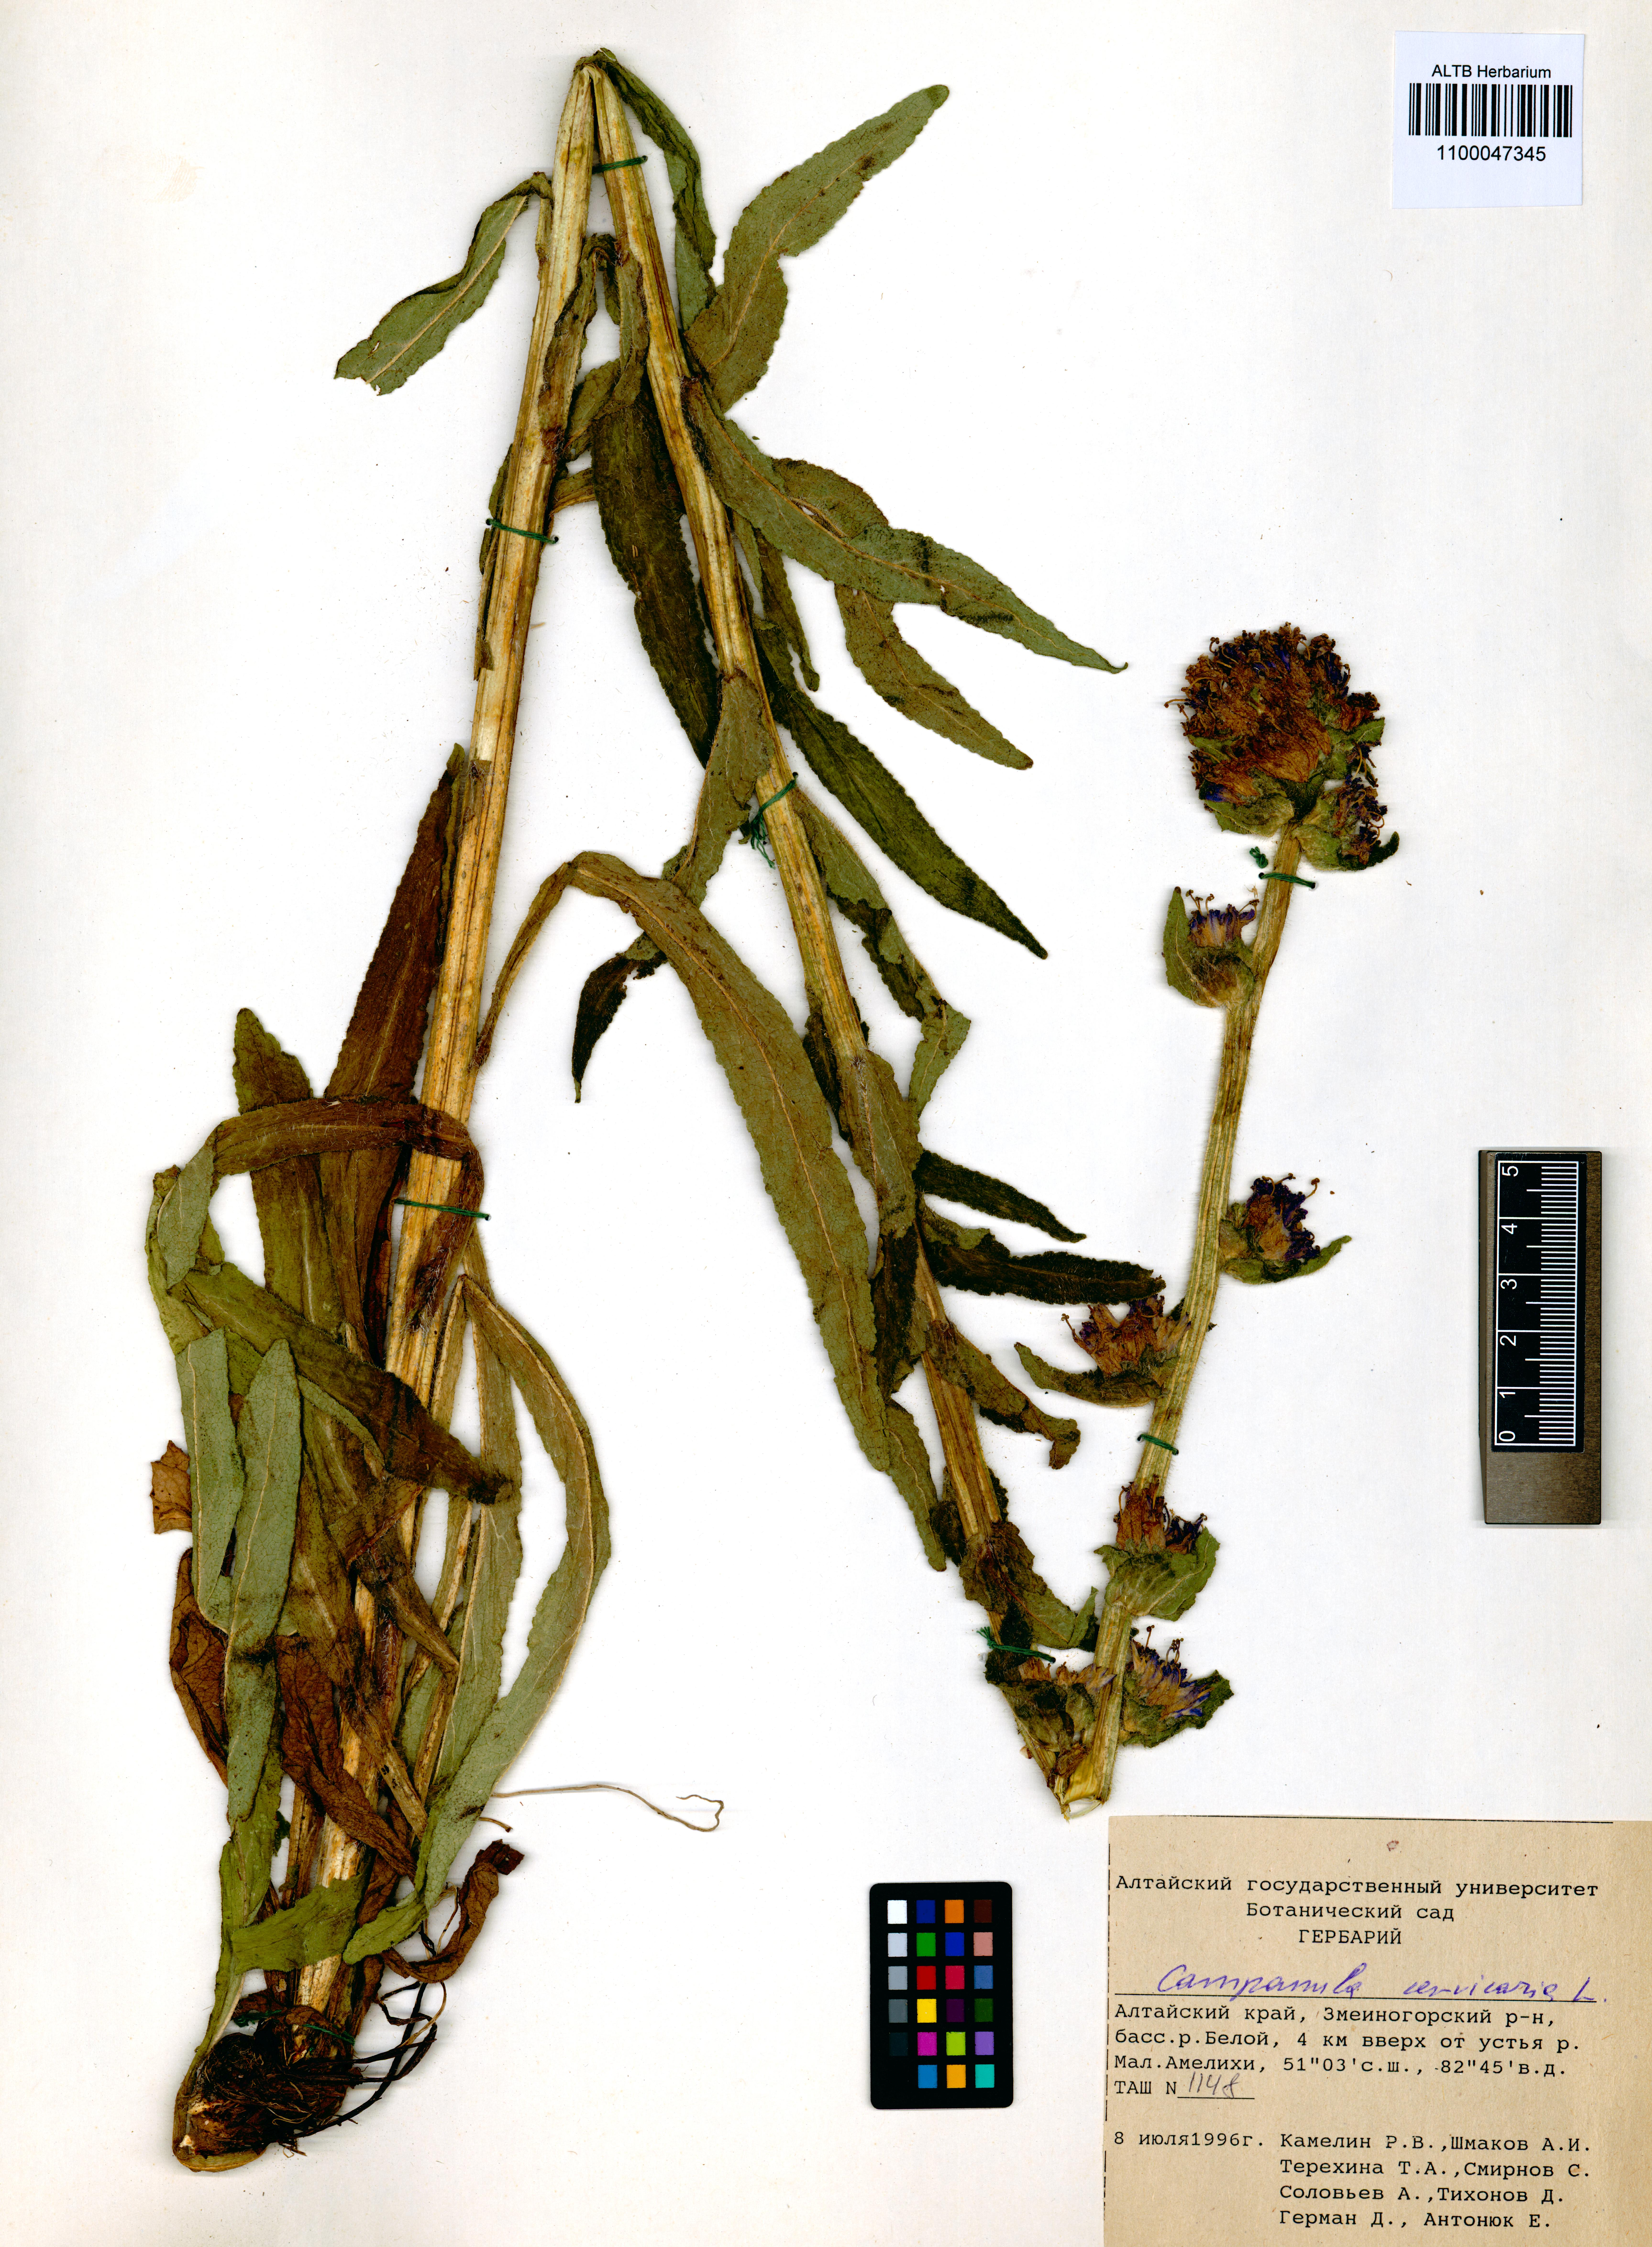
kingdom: Plantae
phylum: Tracheophyta
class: Magnoliopsida
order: Asterales
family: Campanulaceae
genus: Campanula
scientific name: Campanula cervicaria
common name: Bristly bellflower
